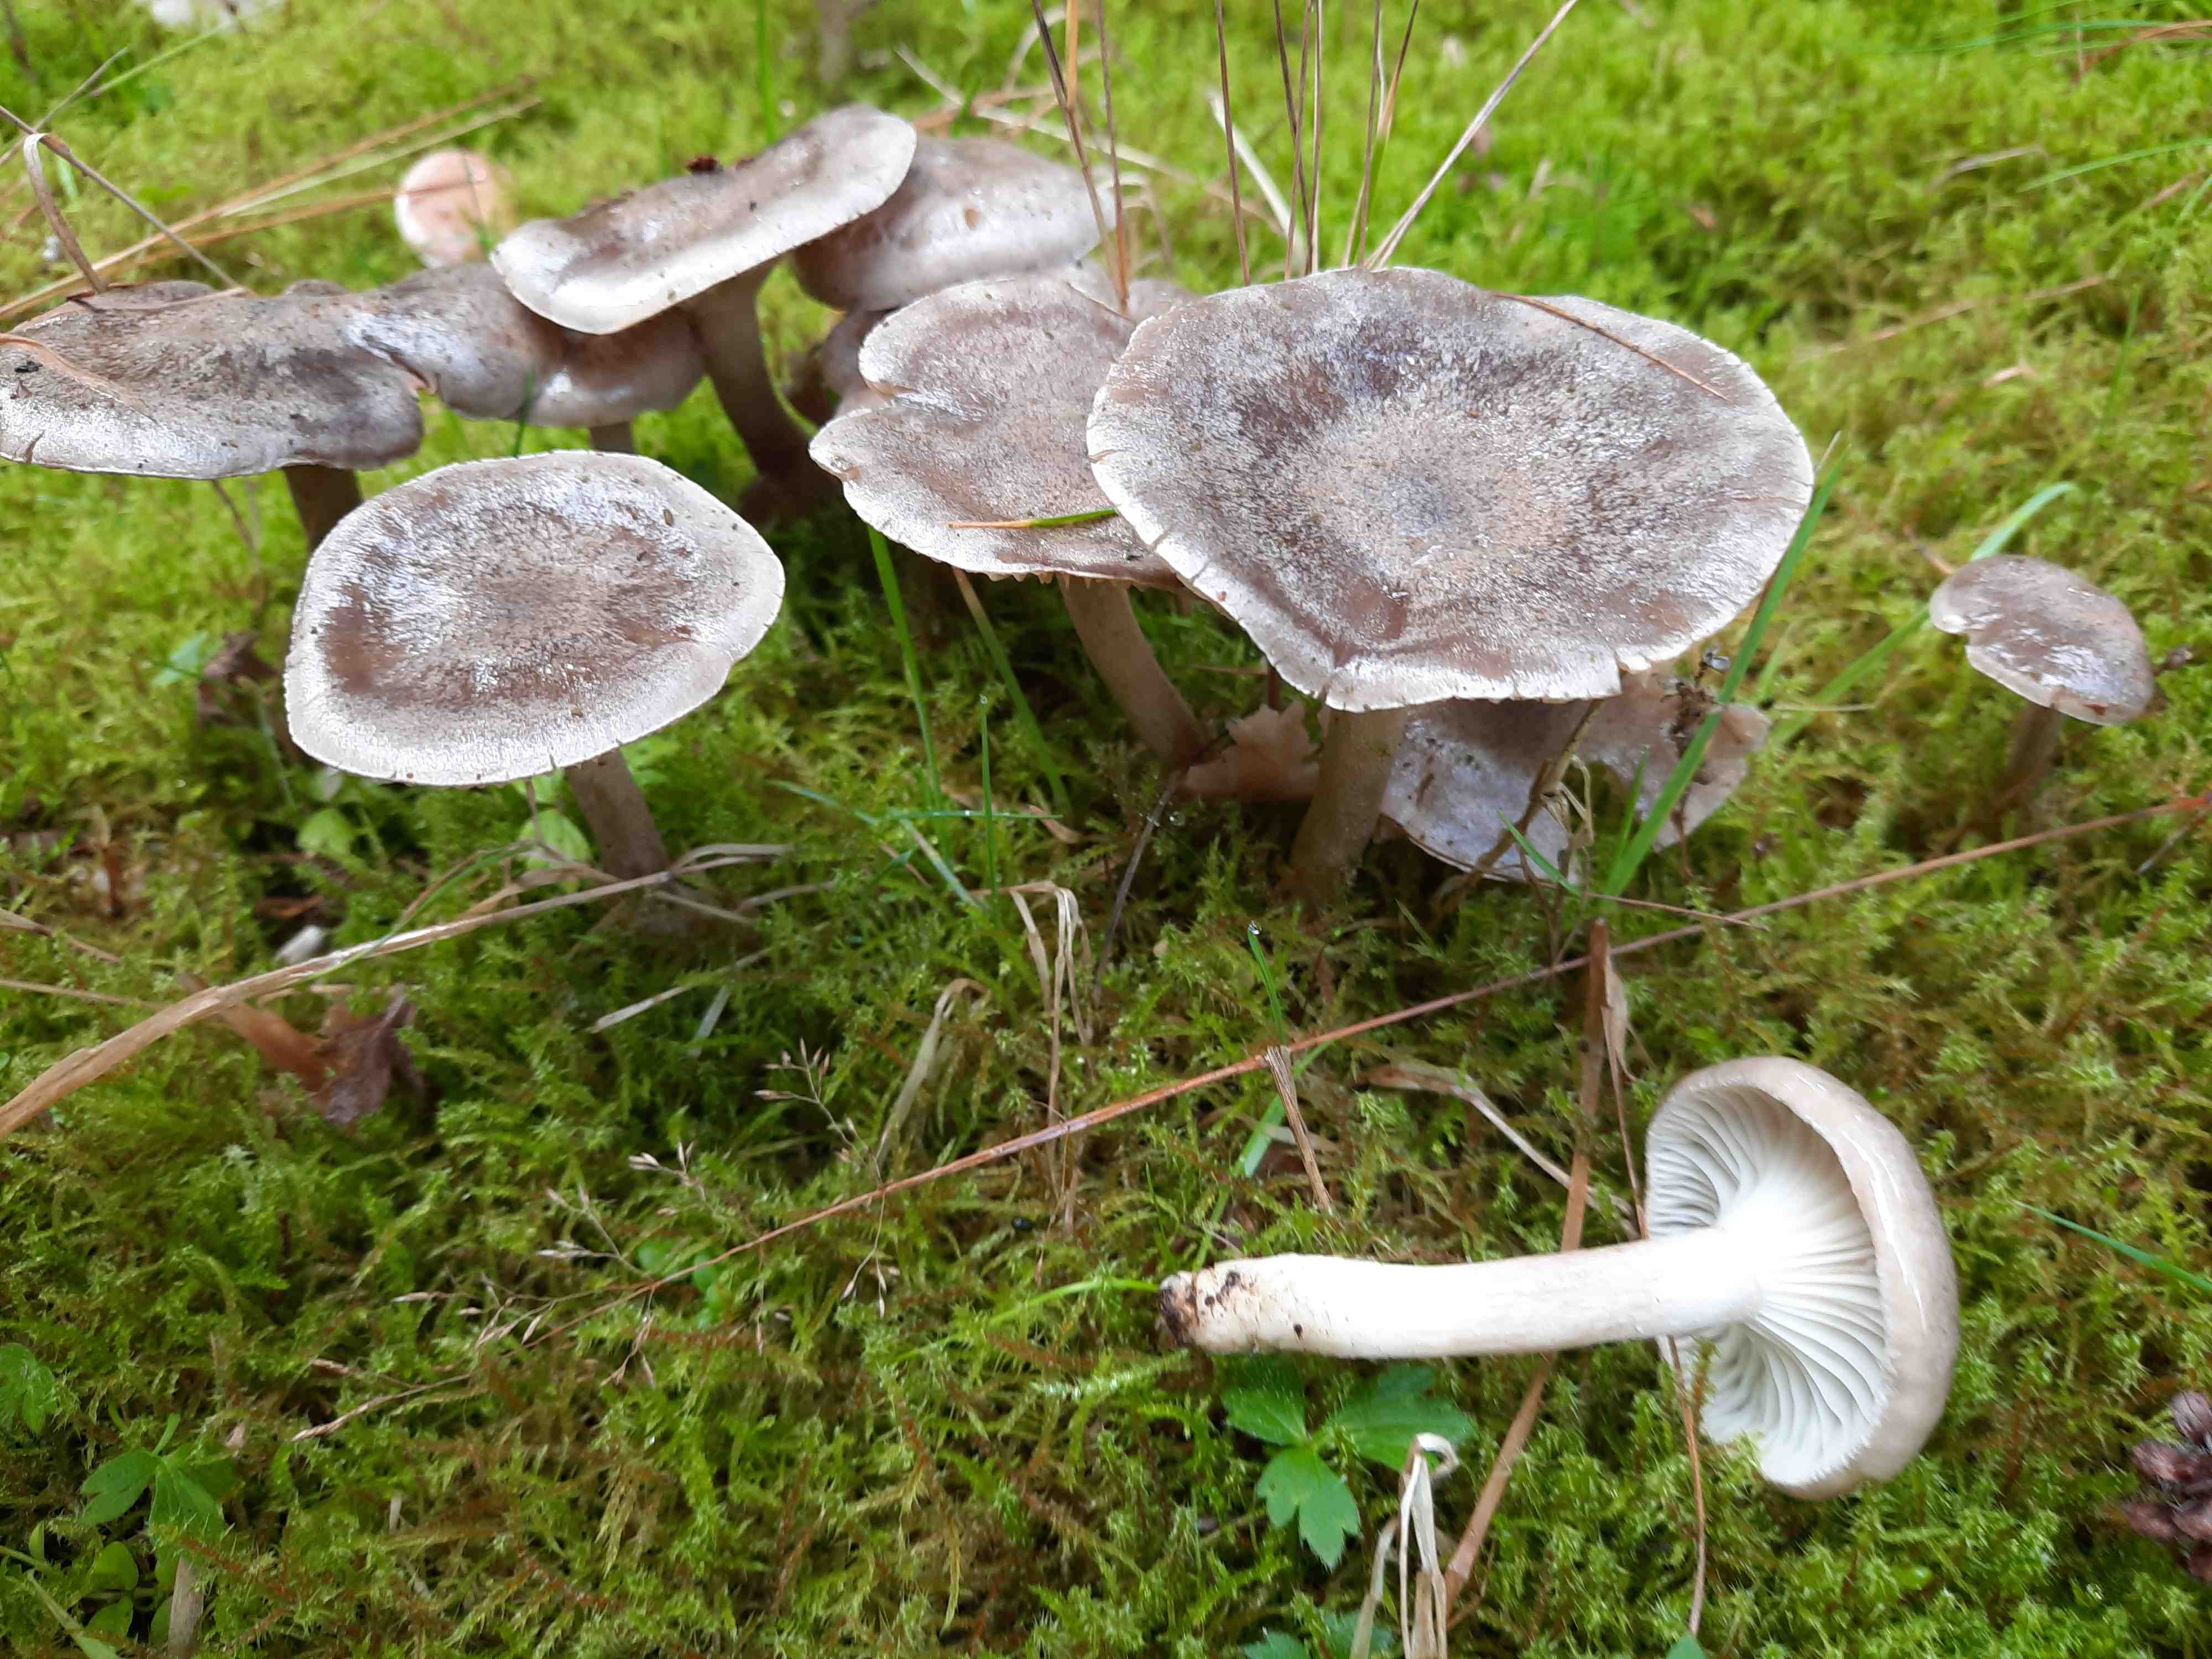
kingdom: Fungi
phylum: Basidiomycota
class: Agaricomycetes
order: Agaricales
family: Hygrophoraceae
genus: Hygrophorus
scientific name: Hygrophorus agathosmus
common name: vellugtende sneglehat
